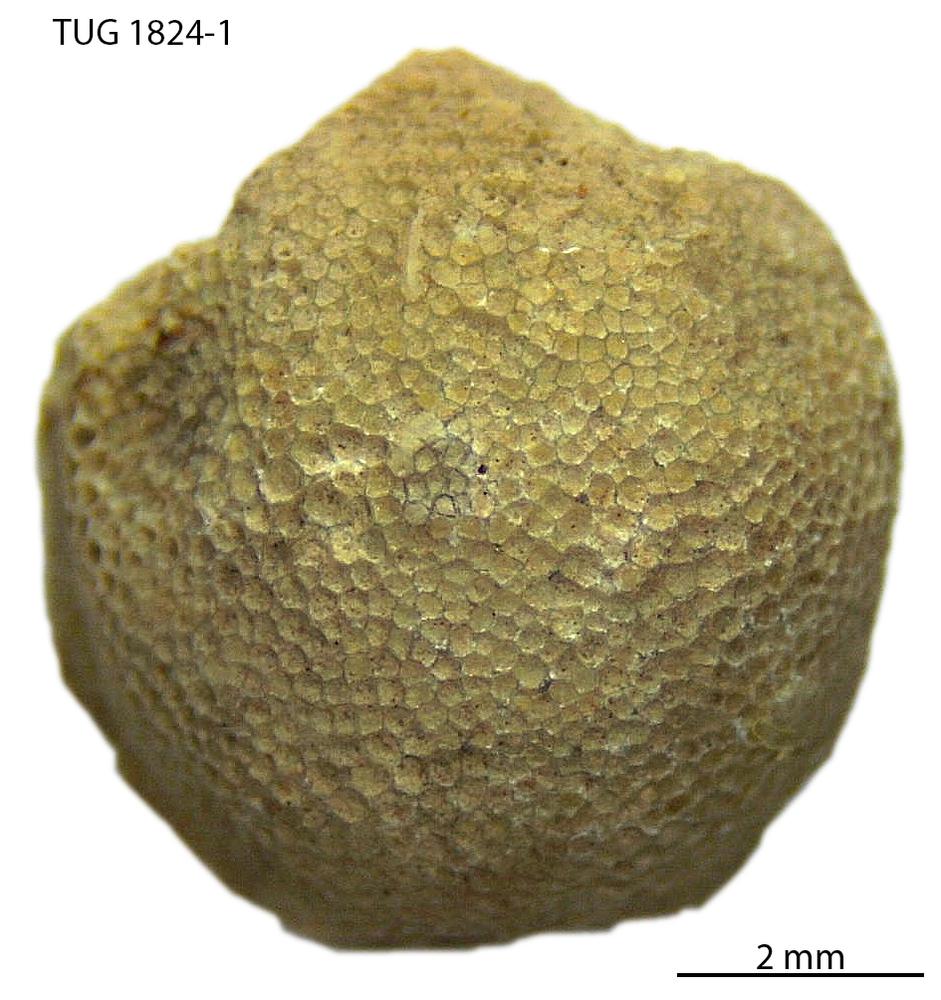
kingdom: Animalia
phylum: Bryozoa
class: Stenolaemata
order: Trepostomatida
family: Diplotrypidae
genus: Diplotrypa
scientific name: Diplotrypa
